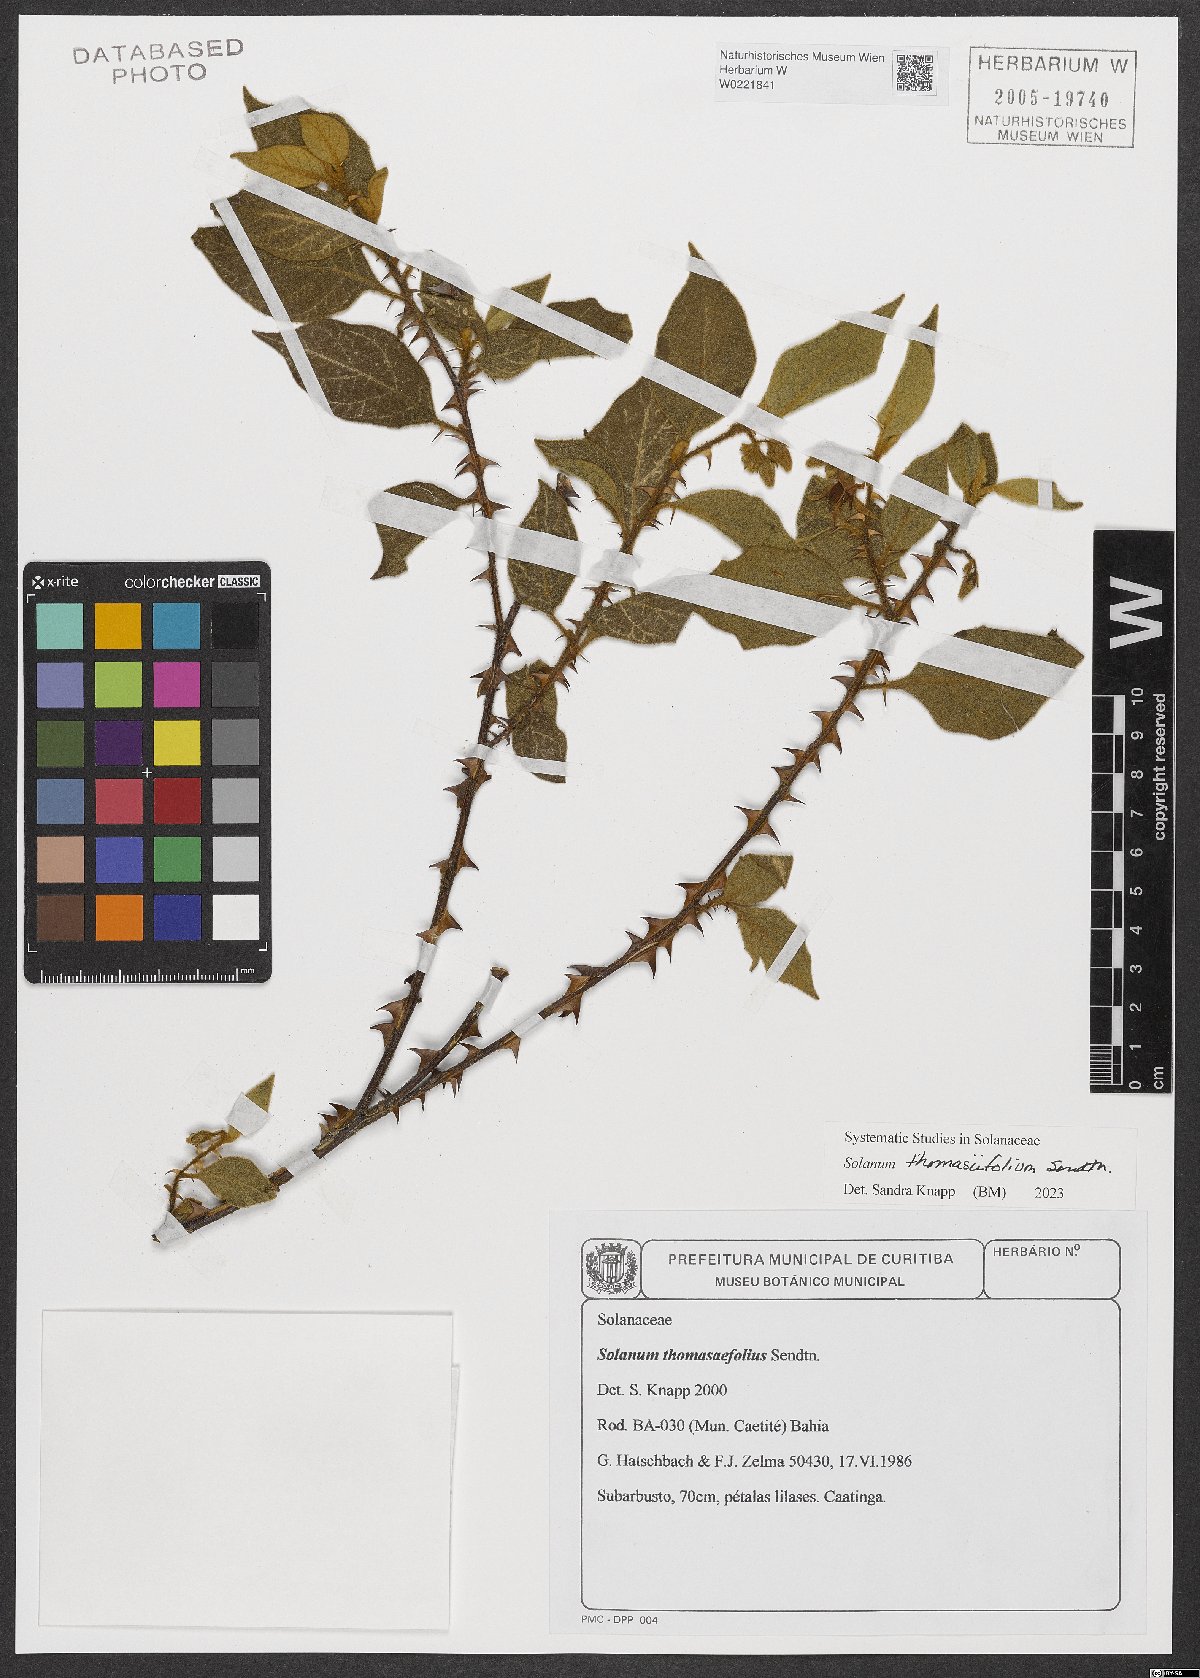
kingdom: Plantae
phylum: Tracheophyta
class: Magnoliopsida
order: Solanales
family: Solanaceae
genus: Solanum
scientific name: Solanum thomasiifolium
